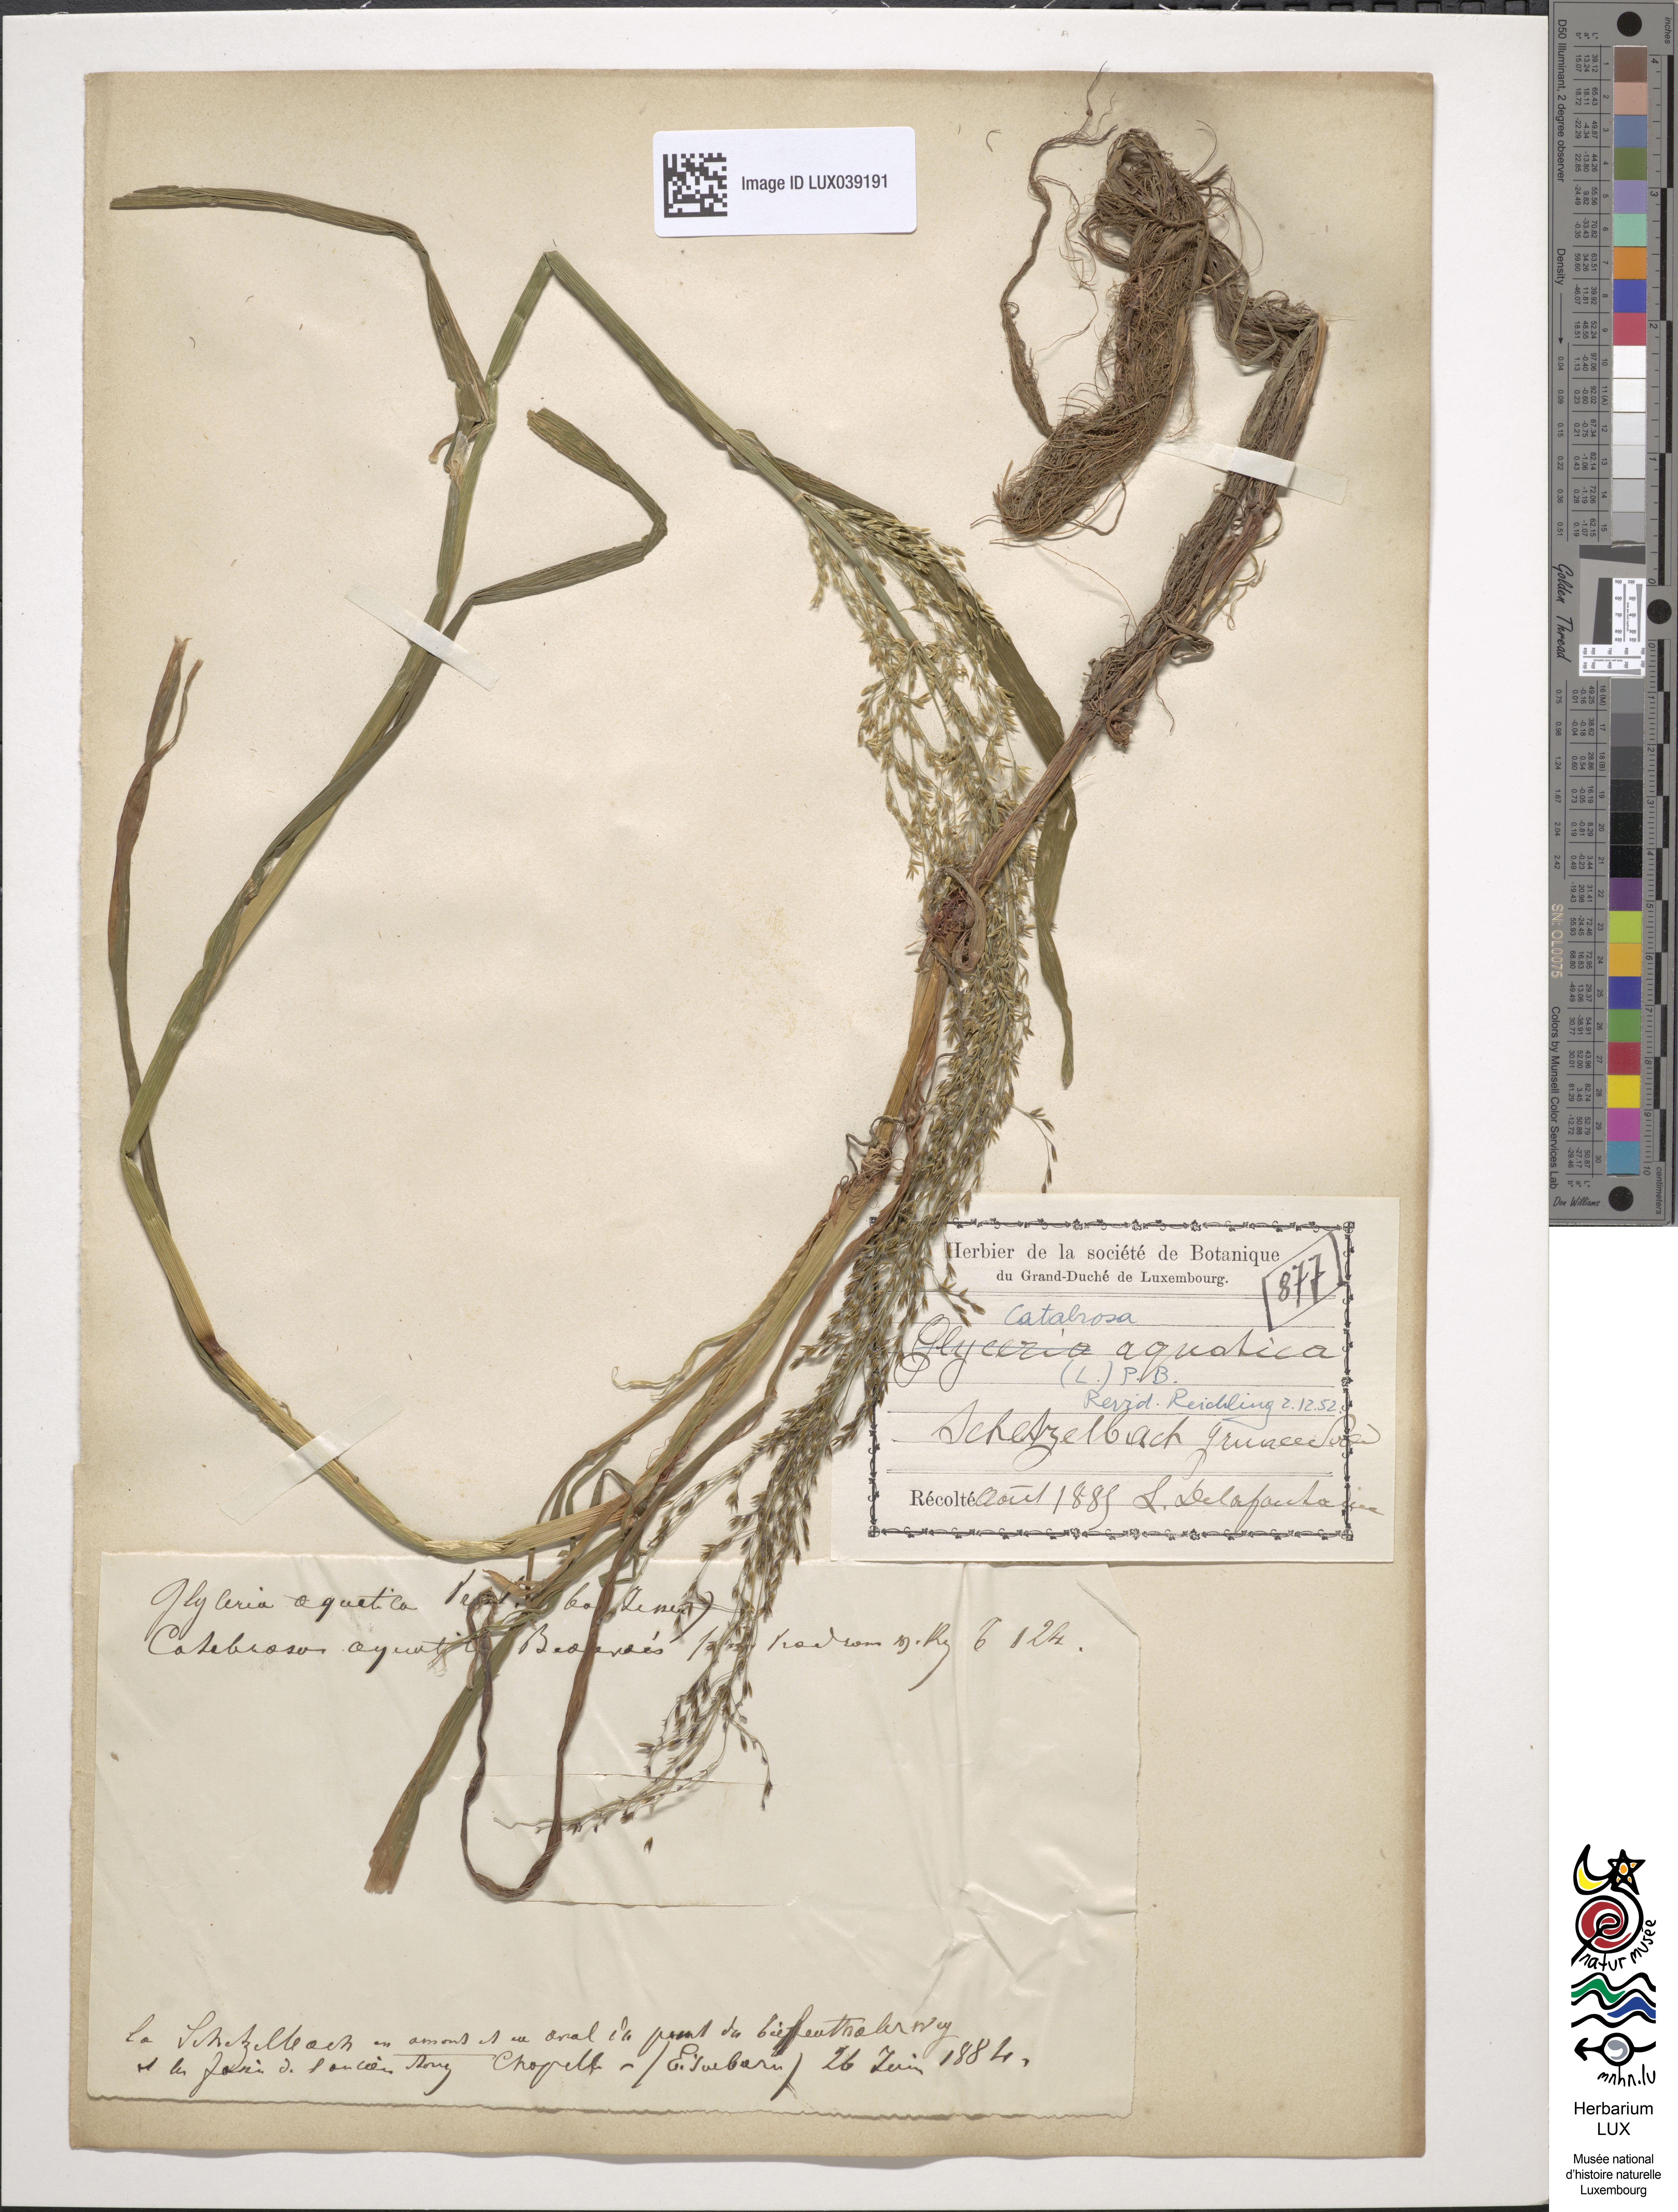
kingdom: Plantae
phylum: Tracheophyta
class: Liliopsida
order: Poales
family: Poaceae
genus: Catabrosa
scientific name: Catabrosa aquatica
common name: Whorl-grass
